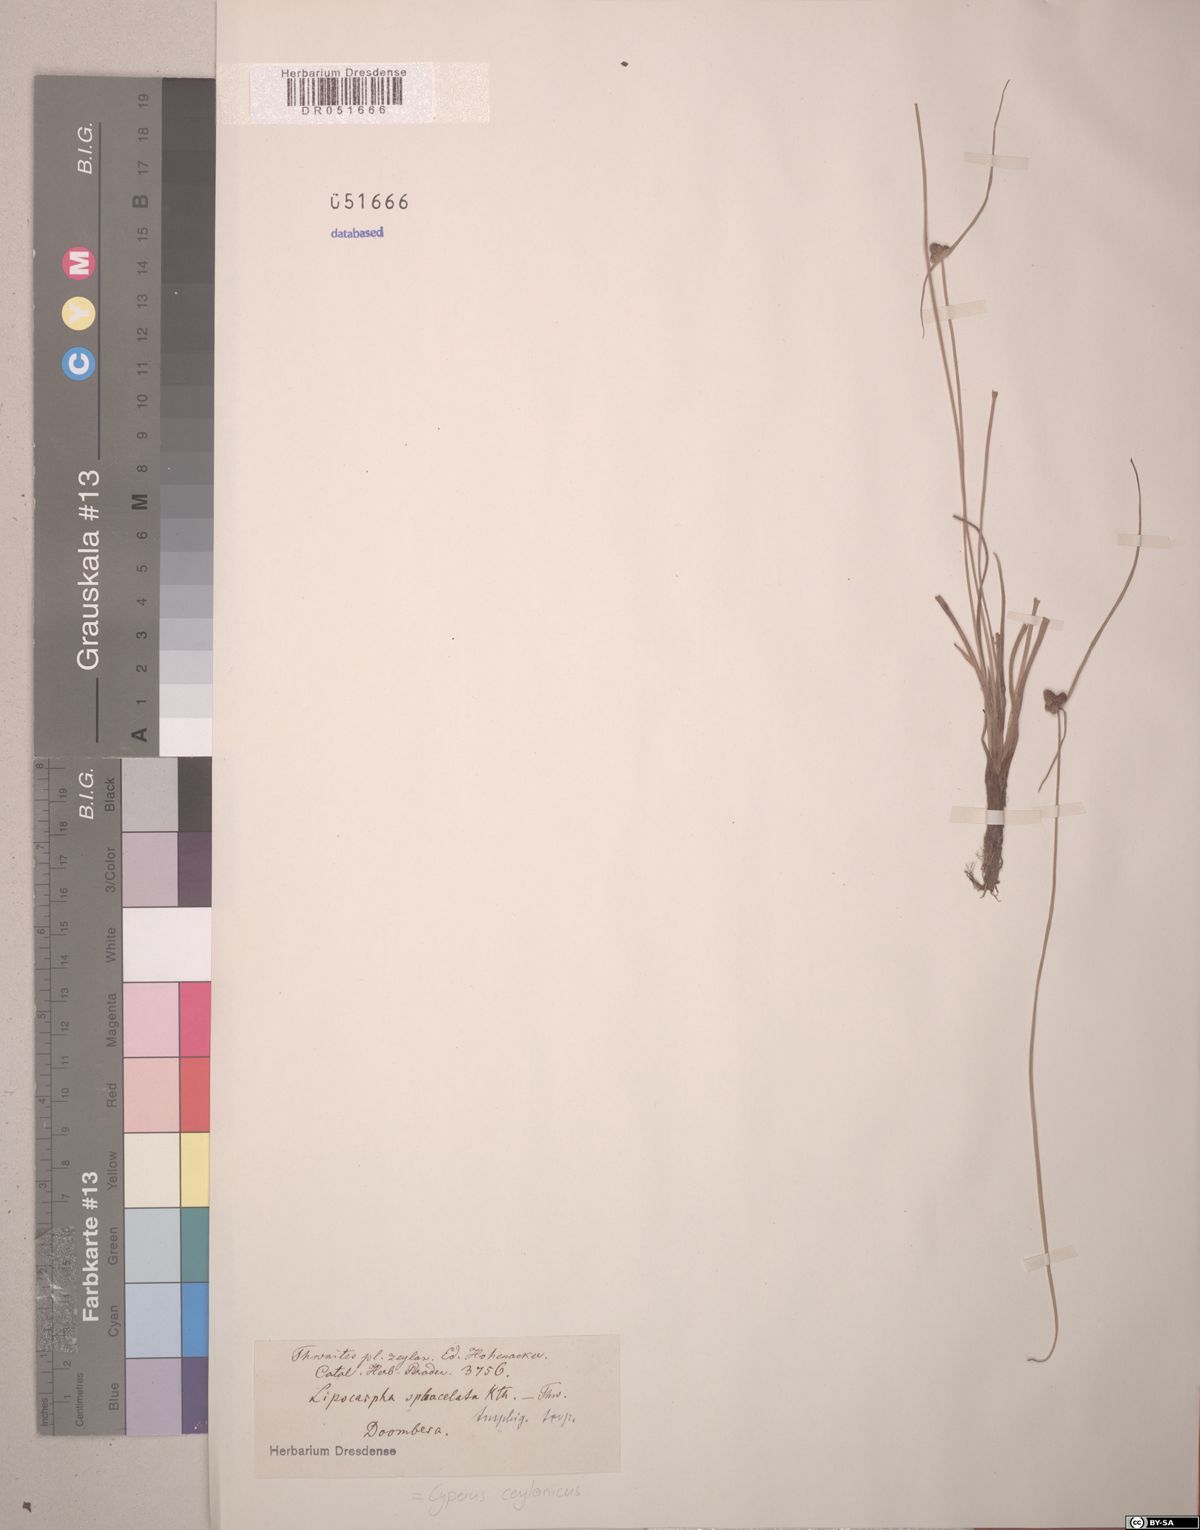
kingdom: Plantae
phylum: Tracheophyta
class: Liliopsida
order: Poales
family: Cyperaceae
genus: Cyperus
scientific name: Cyperus ceylanicus
